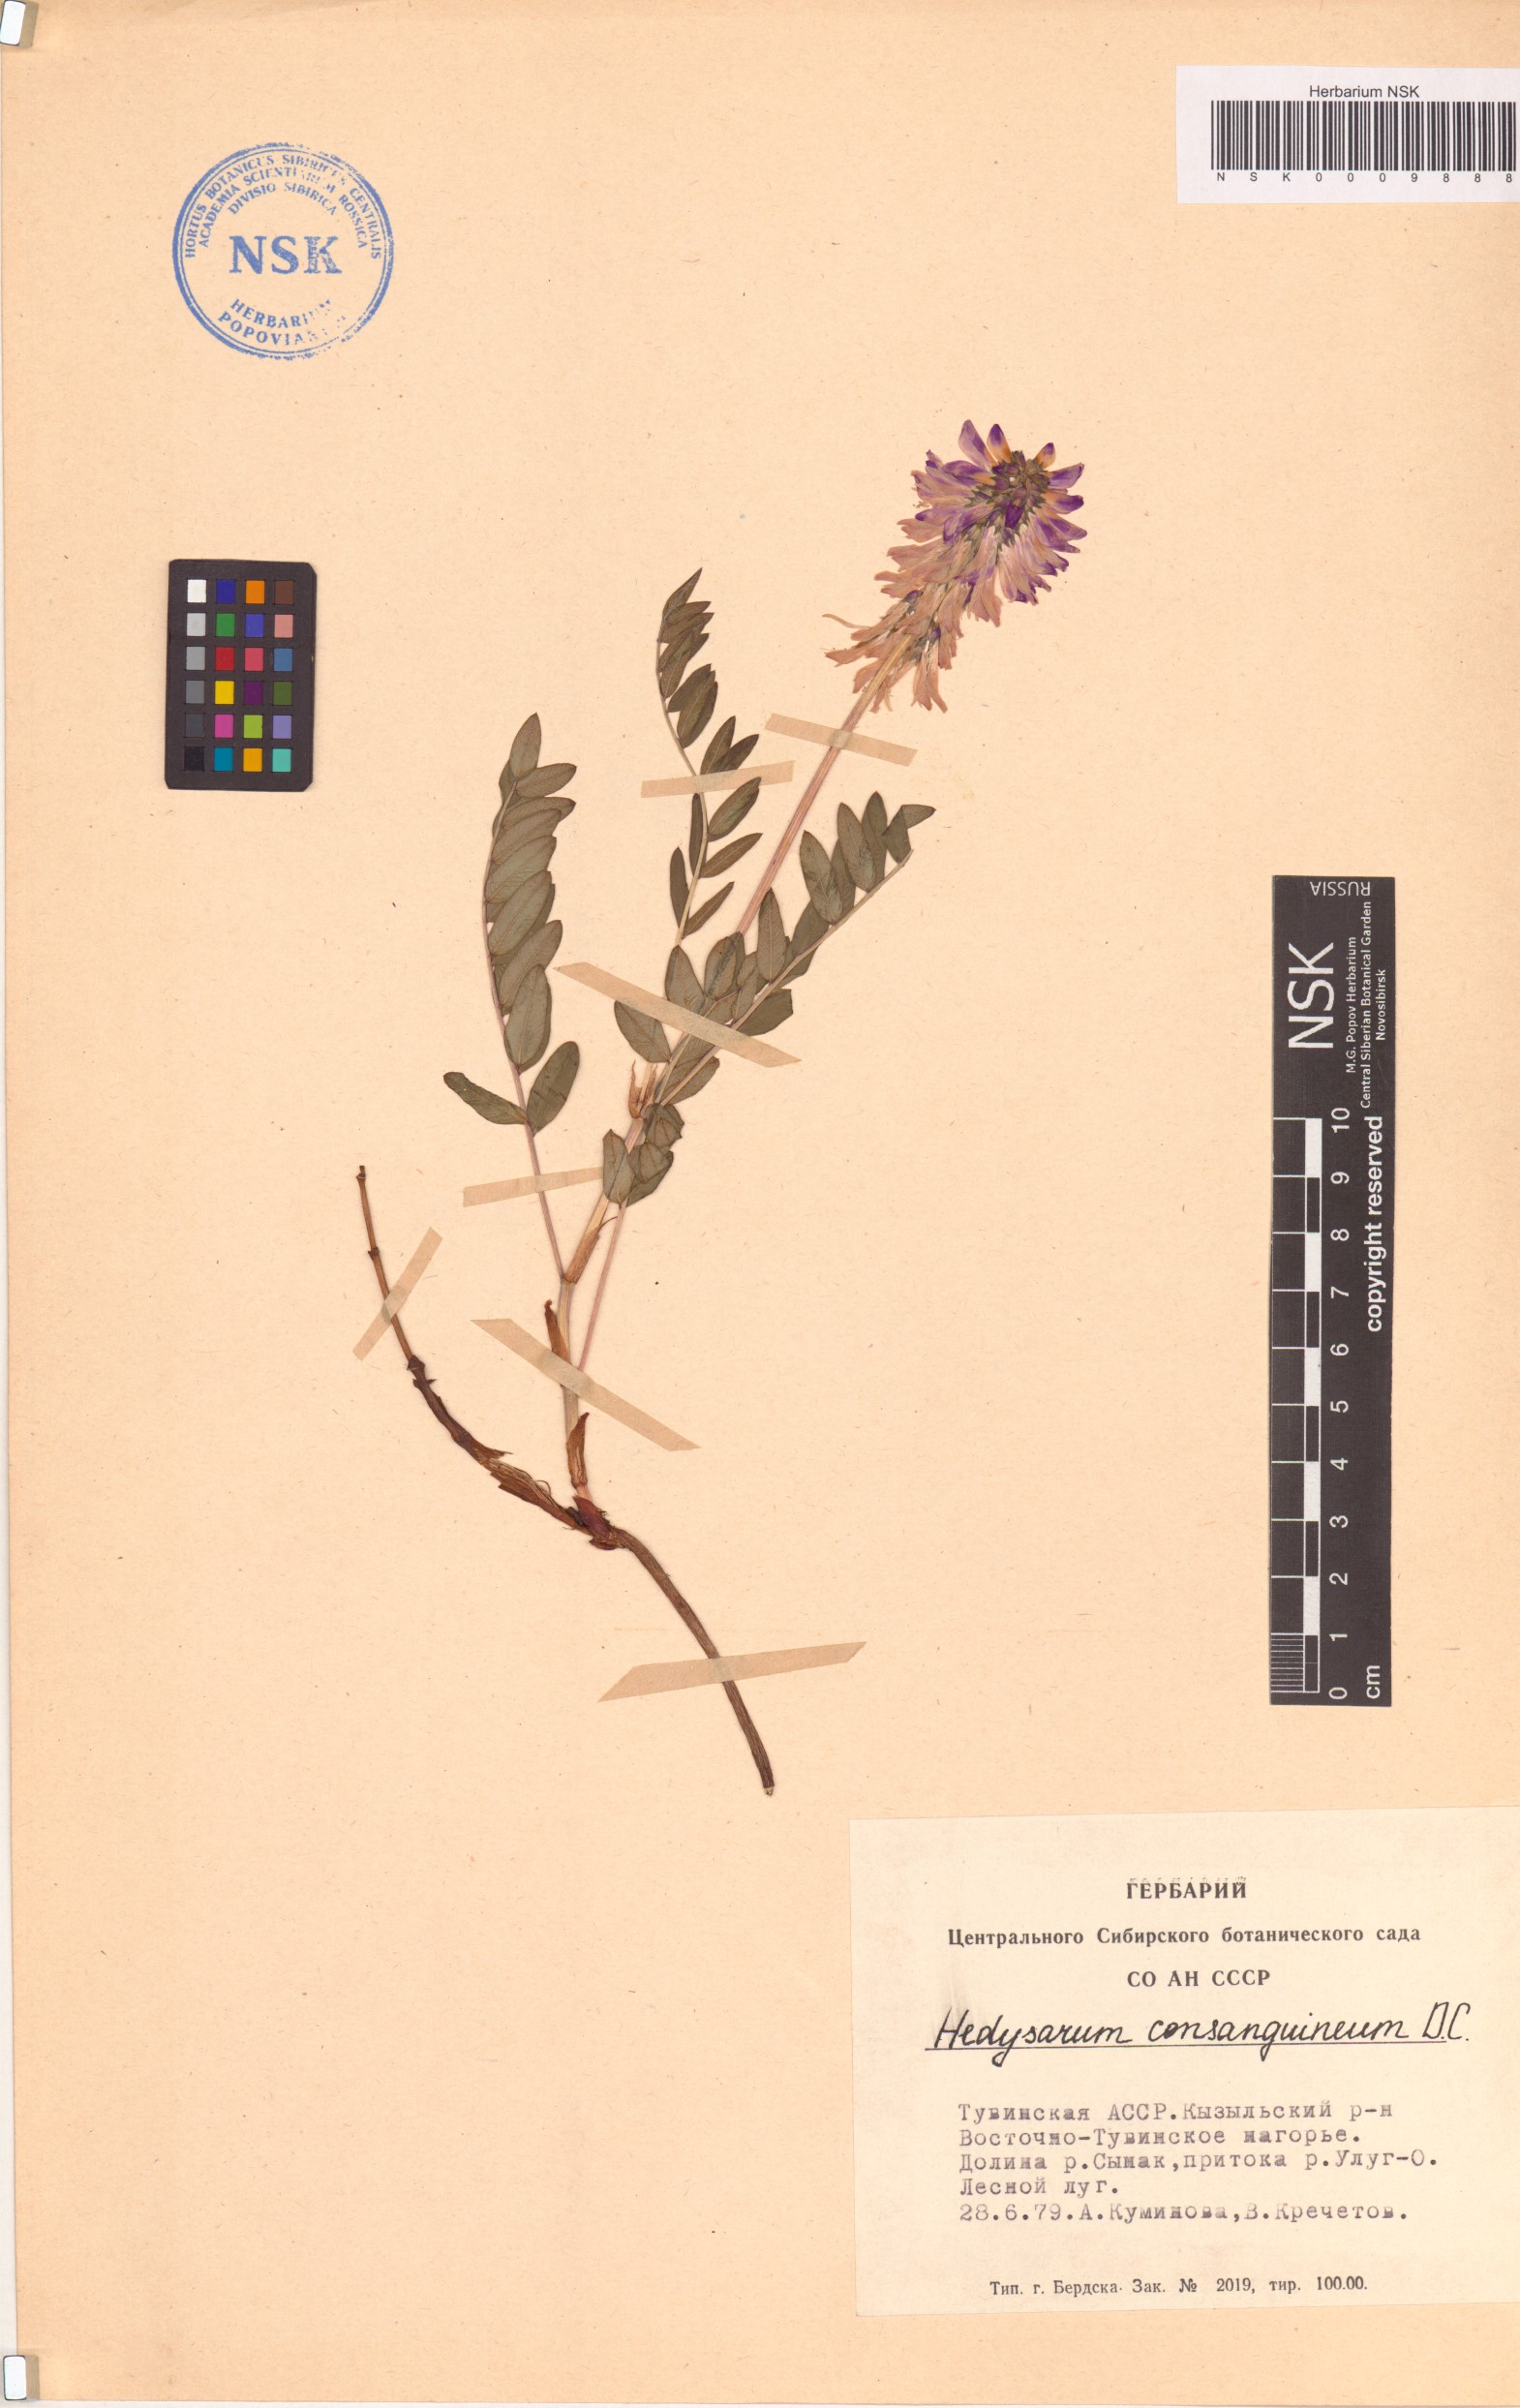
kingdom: Plantae
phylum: Tracheophyta
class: Magnoliopsida
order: Fabales
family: Fabaceae
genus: Hedysarum
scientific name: Hedysarum consanguineum
